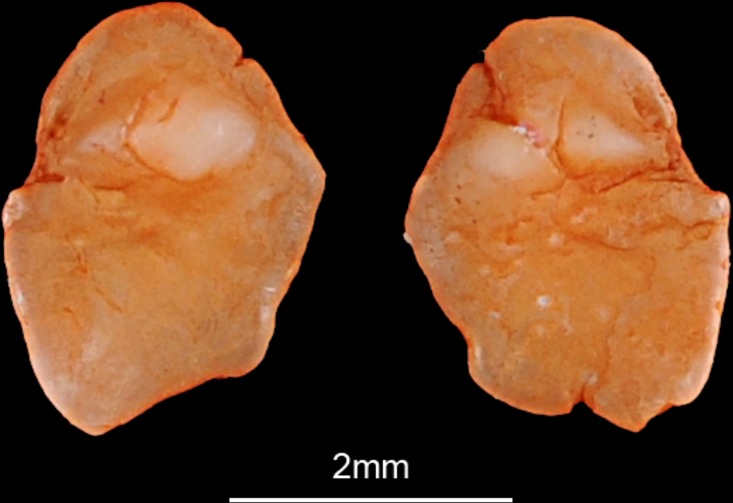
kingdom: Animalia
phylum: Chordata
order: Cypriniformes
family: Cyprinidae
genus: Ballerus
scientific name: Ballerus ballerus
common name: Blue bream
